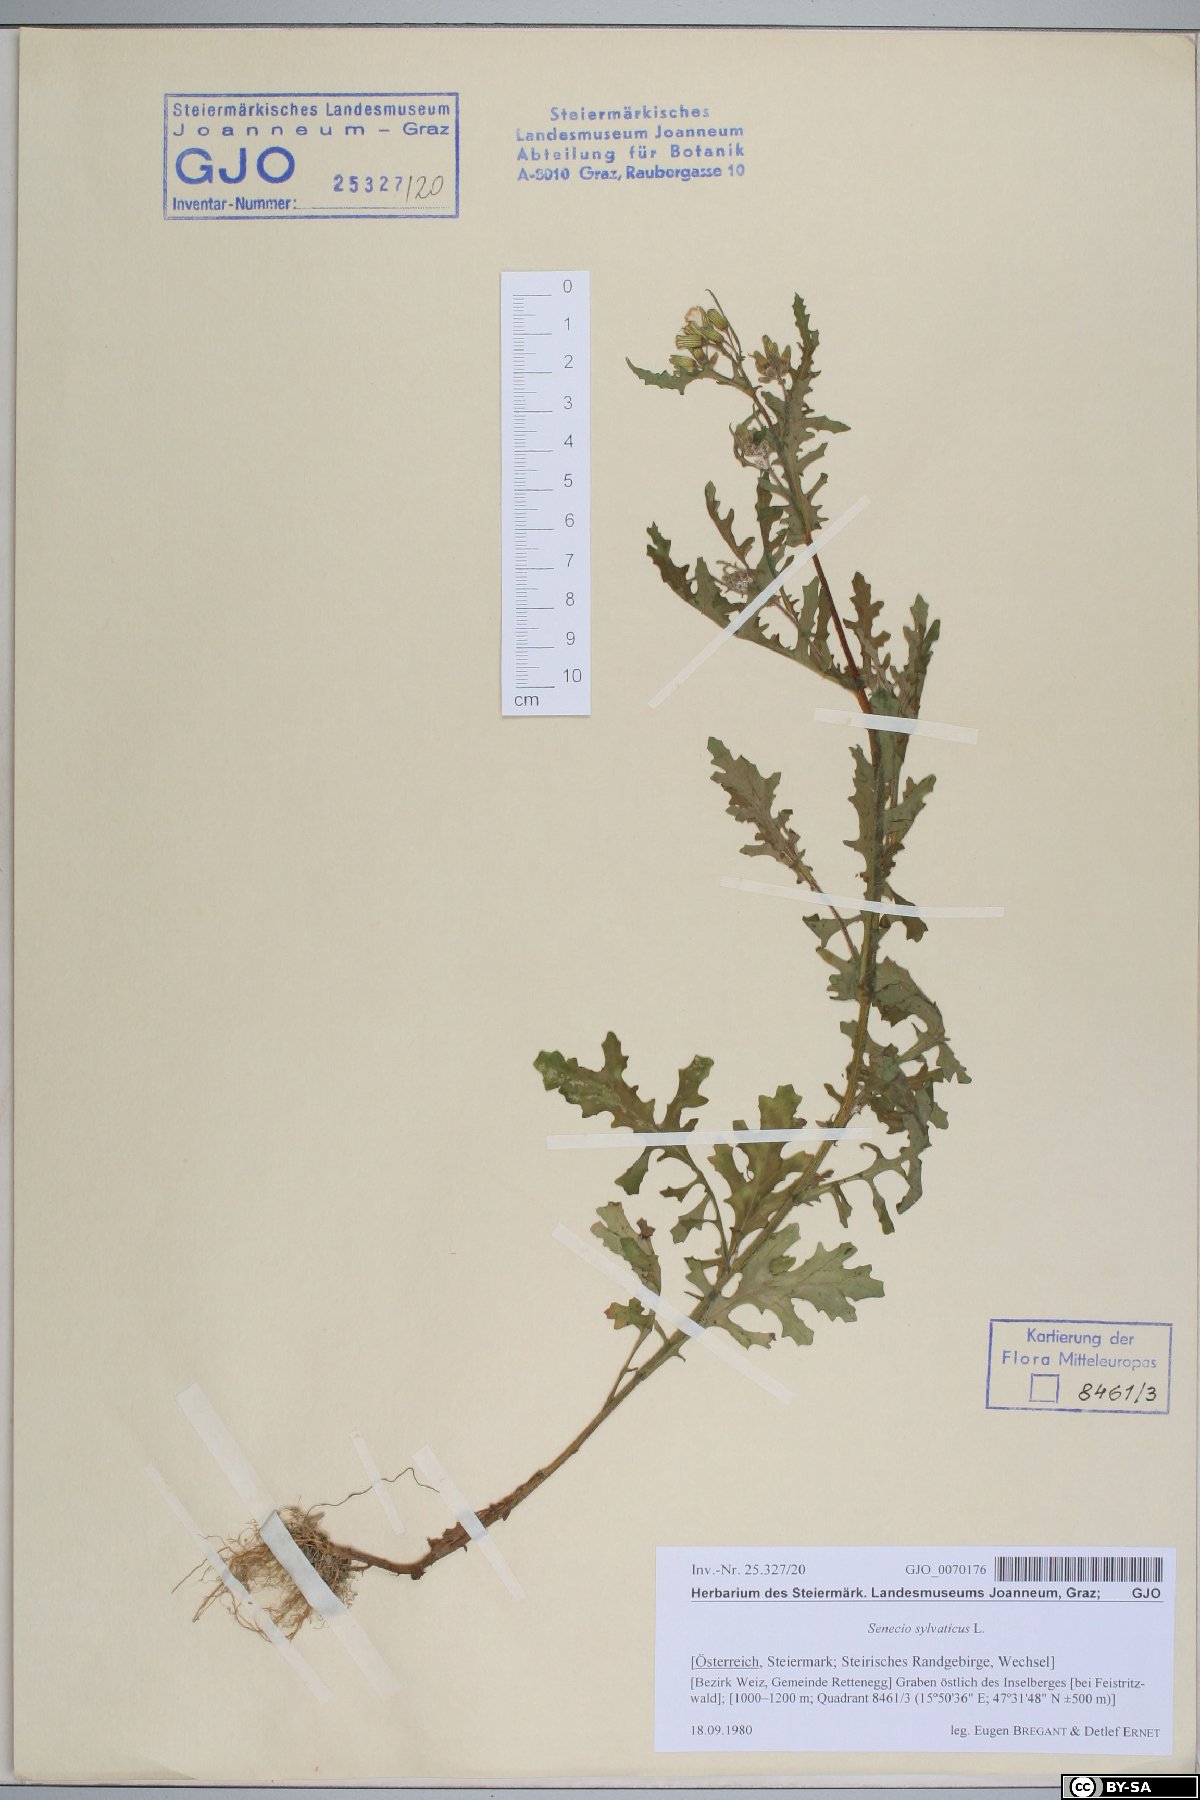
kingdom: Plantae
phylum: Tracheophyta
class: Magnoliopsida
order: Asterales
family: Asteraceae
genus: Senecio
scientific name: Senecio sylvaticus
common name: Woodland ragwort
